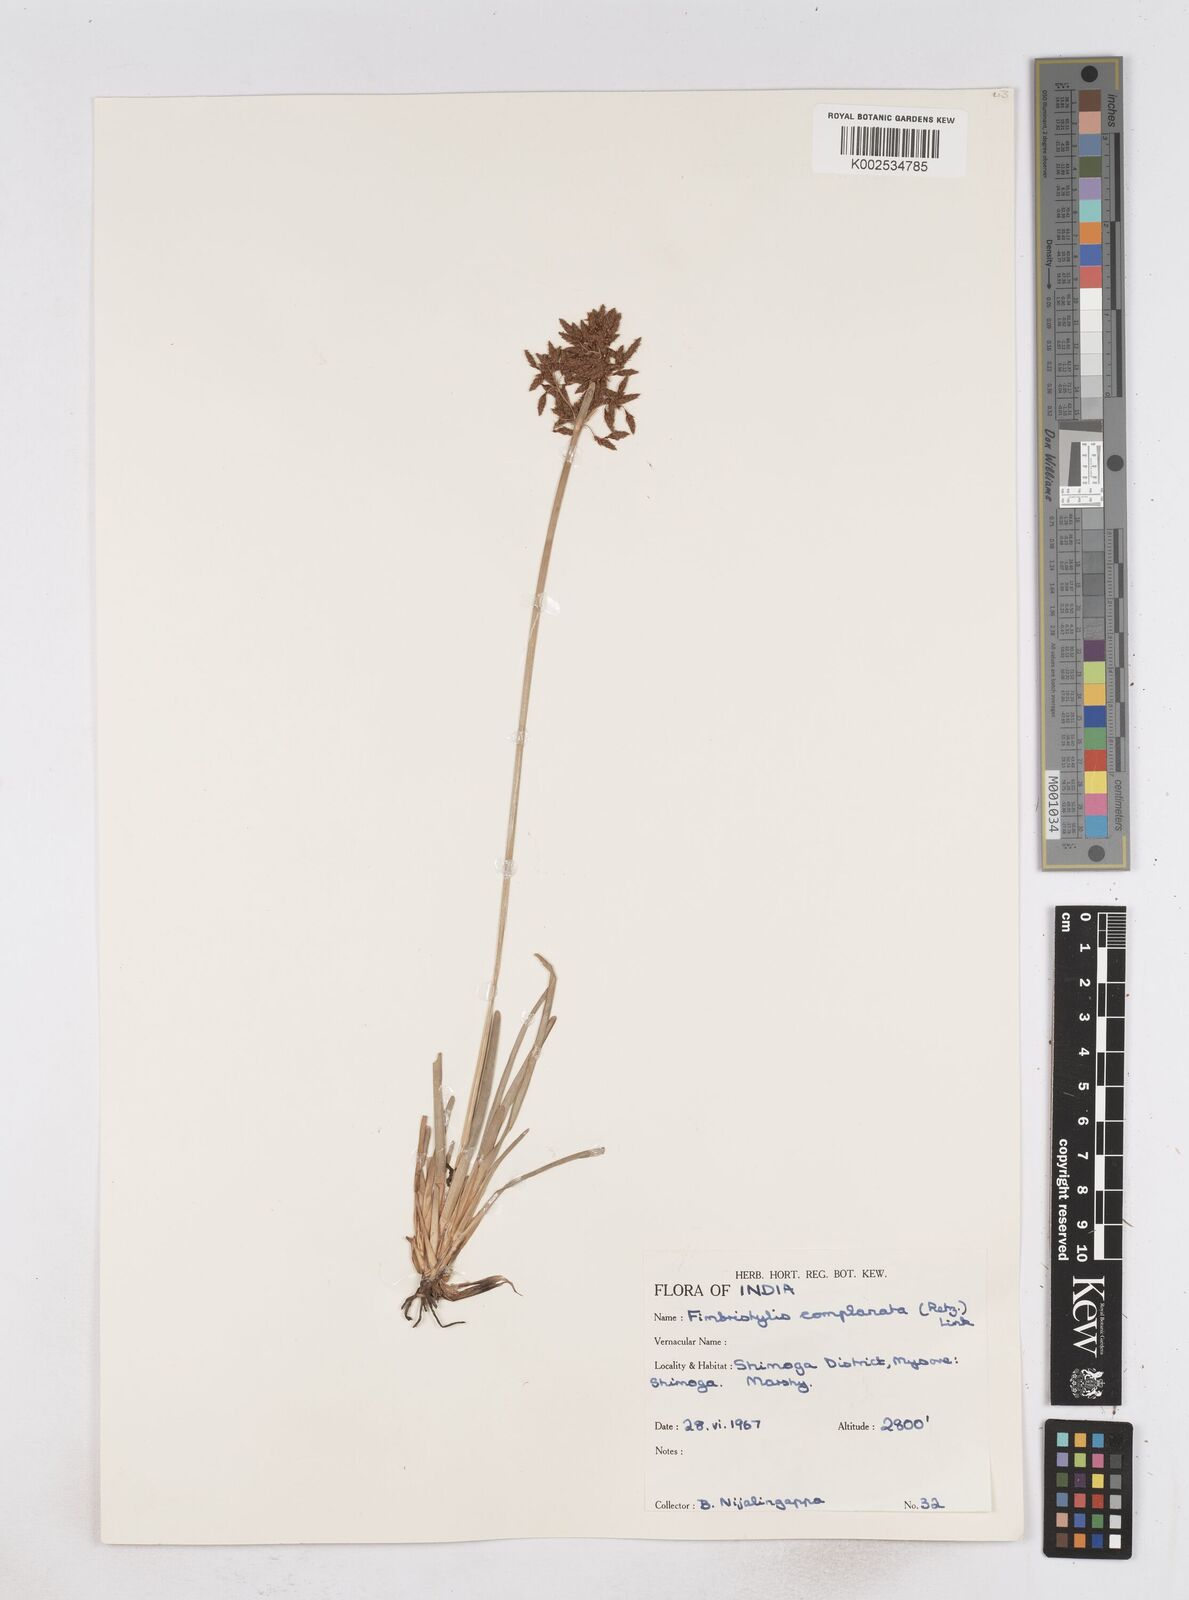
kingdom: Plantae
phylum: Tracheophyta
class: Liliopsida
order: Poales
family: Cyperaceae
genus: Fimbristylis
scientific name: Fimbristylis complanata
